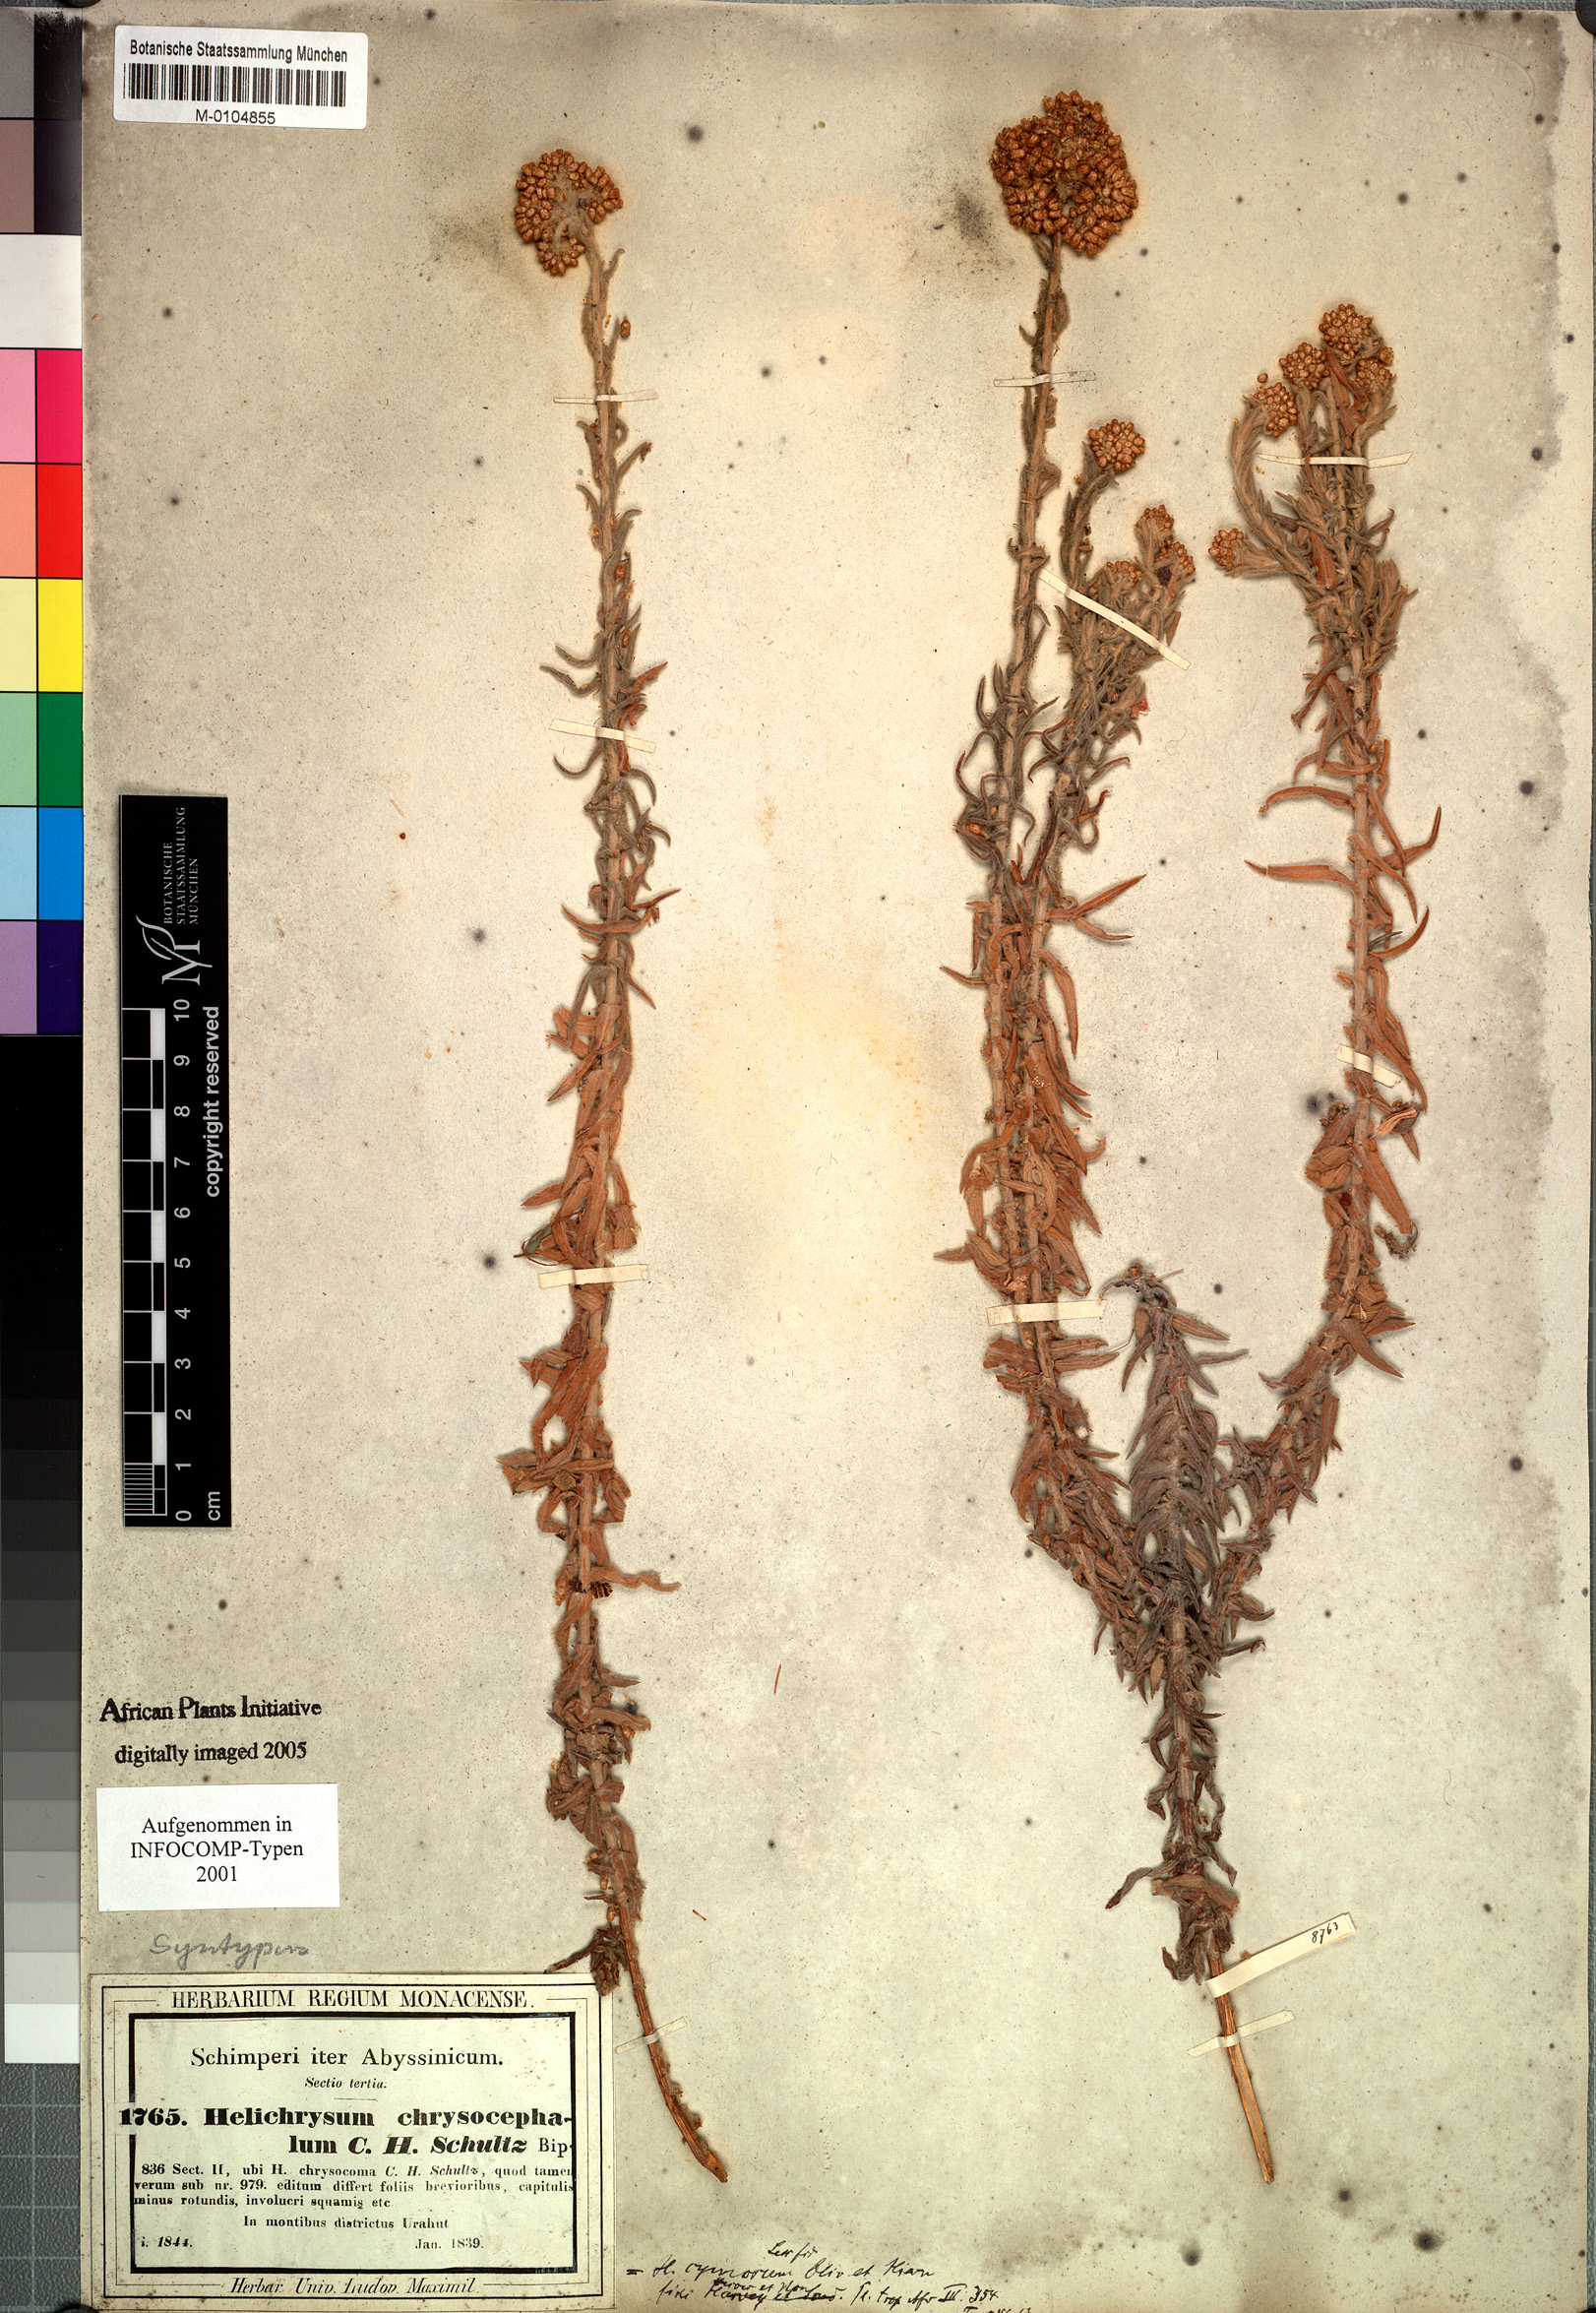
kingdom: Plantae
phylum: Tracheophyta
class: Magnoliopsida
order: Asterales
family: Asteraceae
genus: Helichrysum
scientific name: Helichrysum forskahlii
